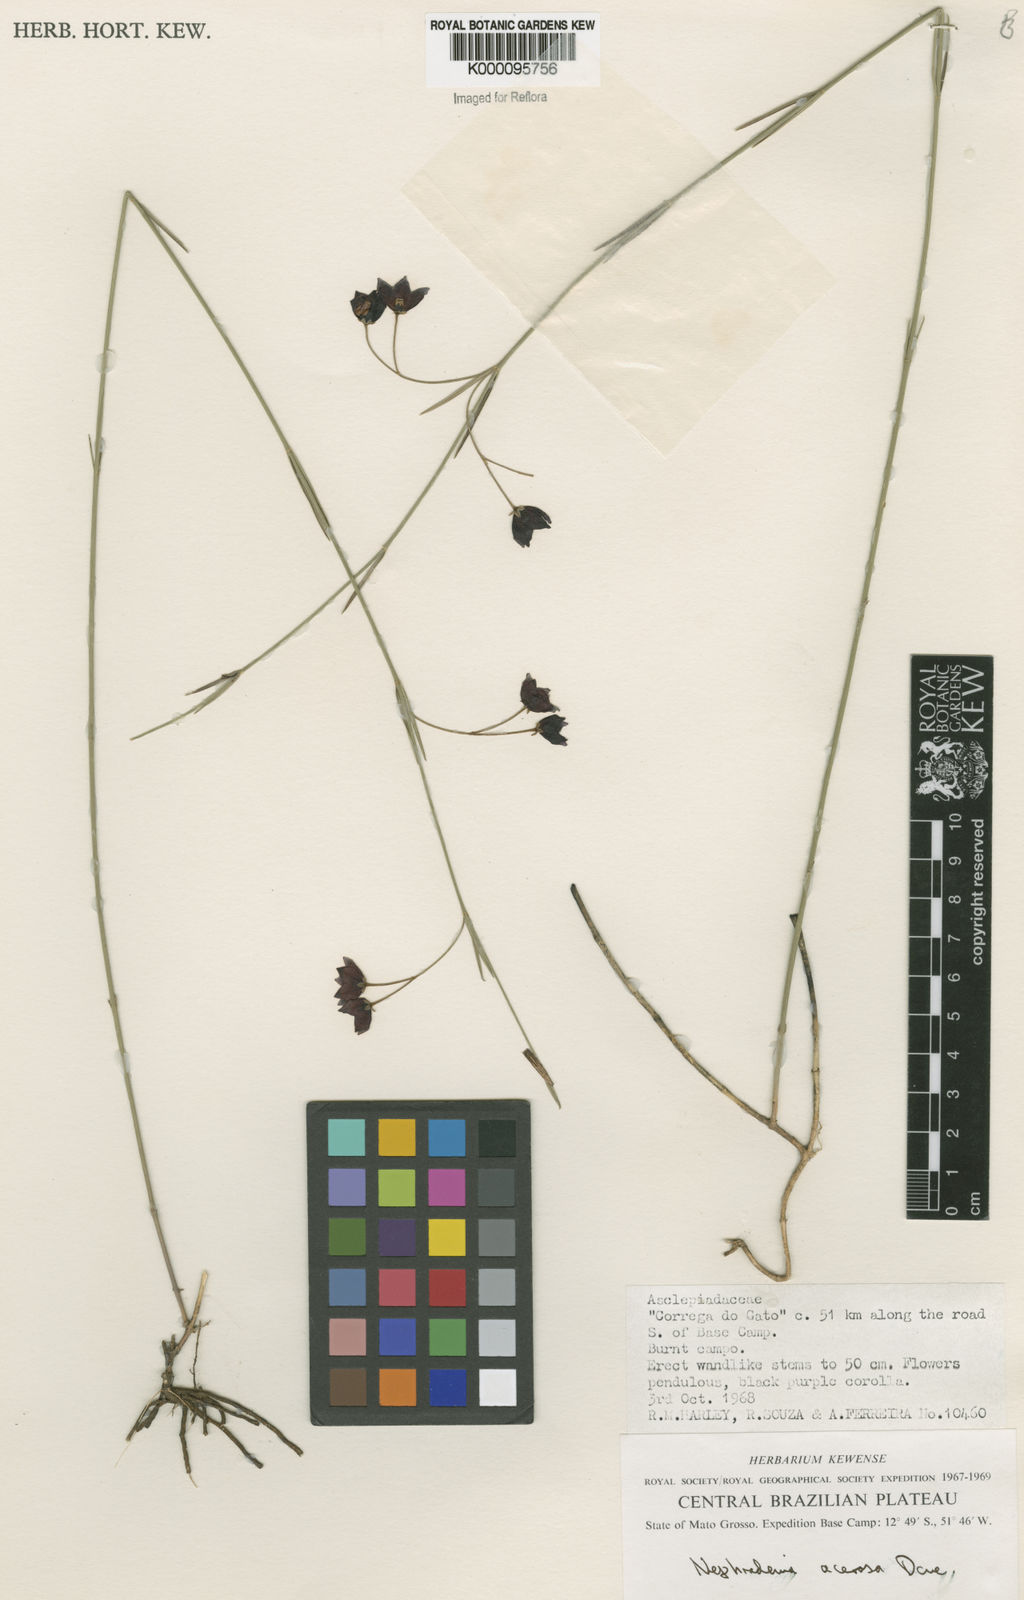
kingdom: Plantae
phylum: Tracheophyta
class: Magnoliopsida
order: Gentianales
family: Apocynaceae
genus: Nephradenia
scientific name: Nephradenia acerosa
